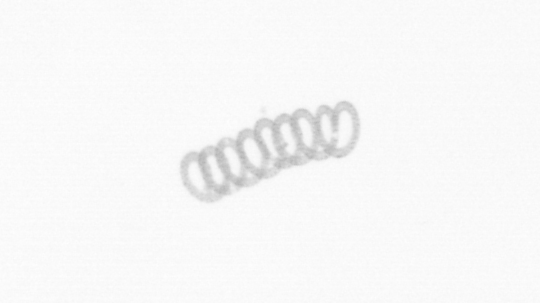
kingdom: Chromista
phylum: Ochrophyta
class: Bacillariophyceae
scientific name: Bacillariophyceae
